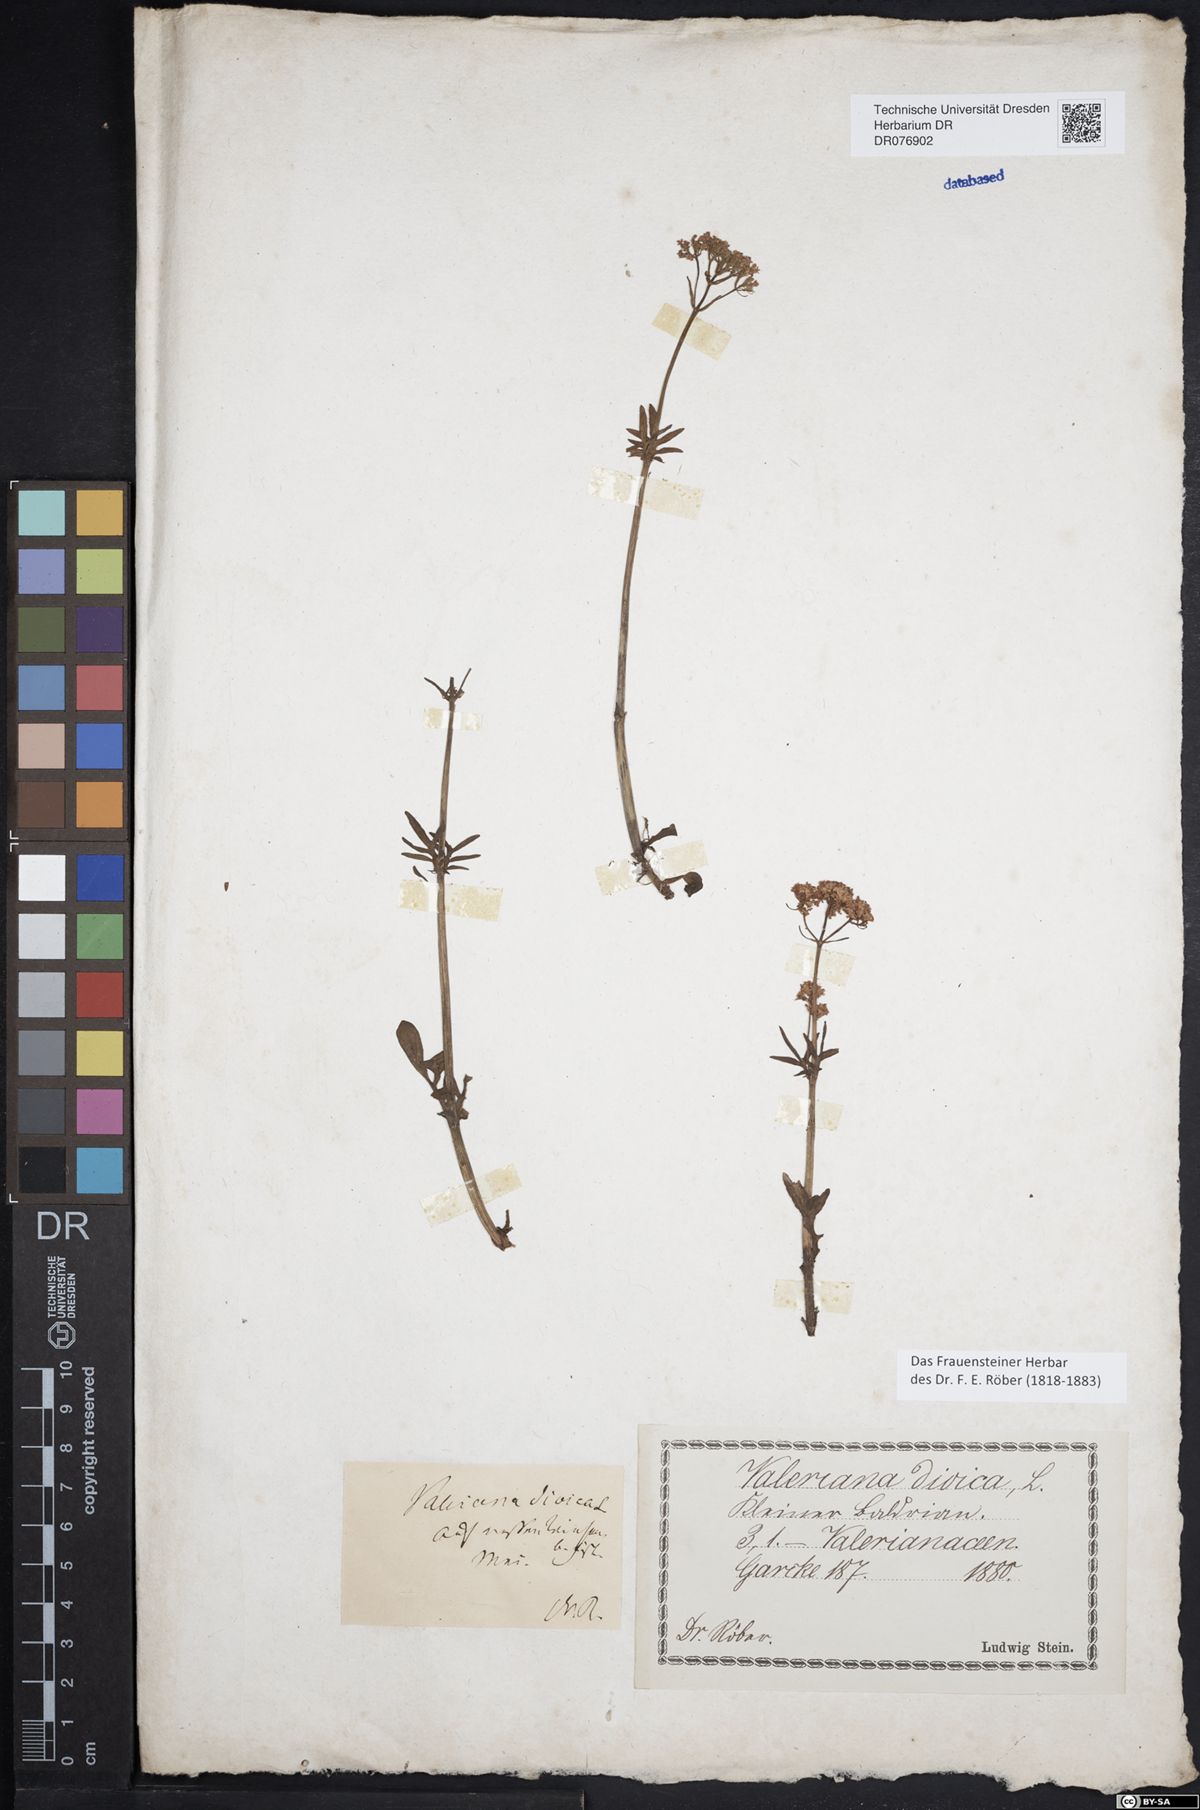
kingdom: Plantae
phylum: Tracheophyta
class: Magnoliopsida
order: Dipsacales
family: Caprifoliaceae
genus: Valeriana
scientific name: Valeriana dioica
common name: Marsh valerian
